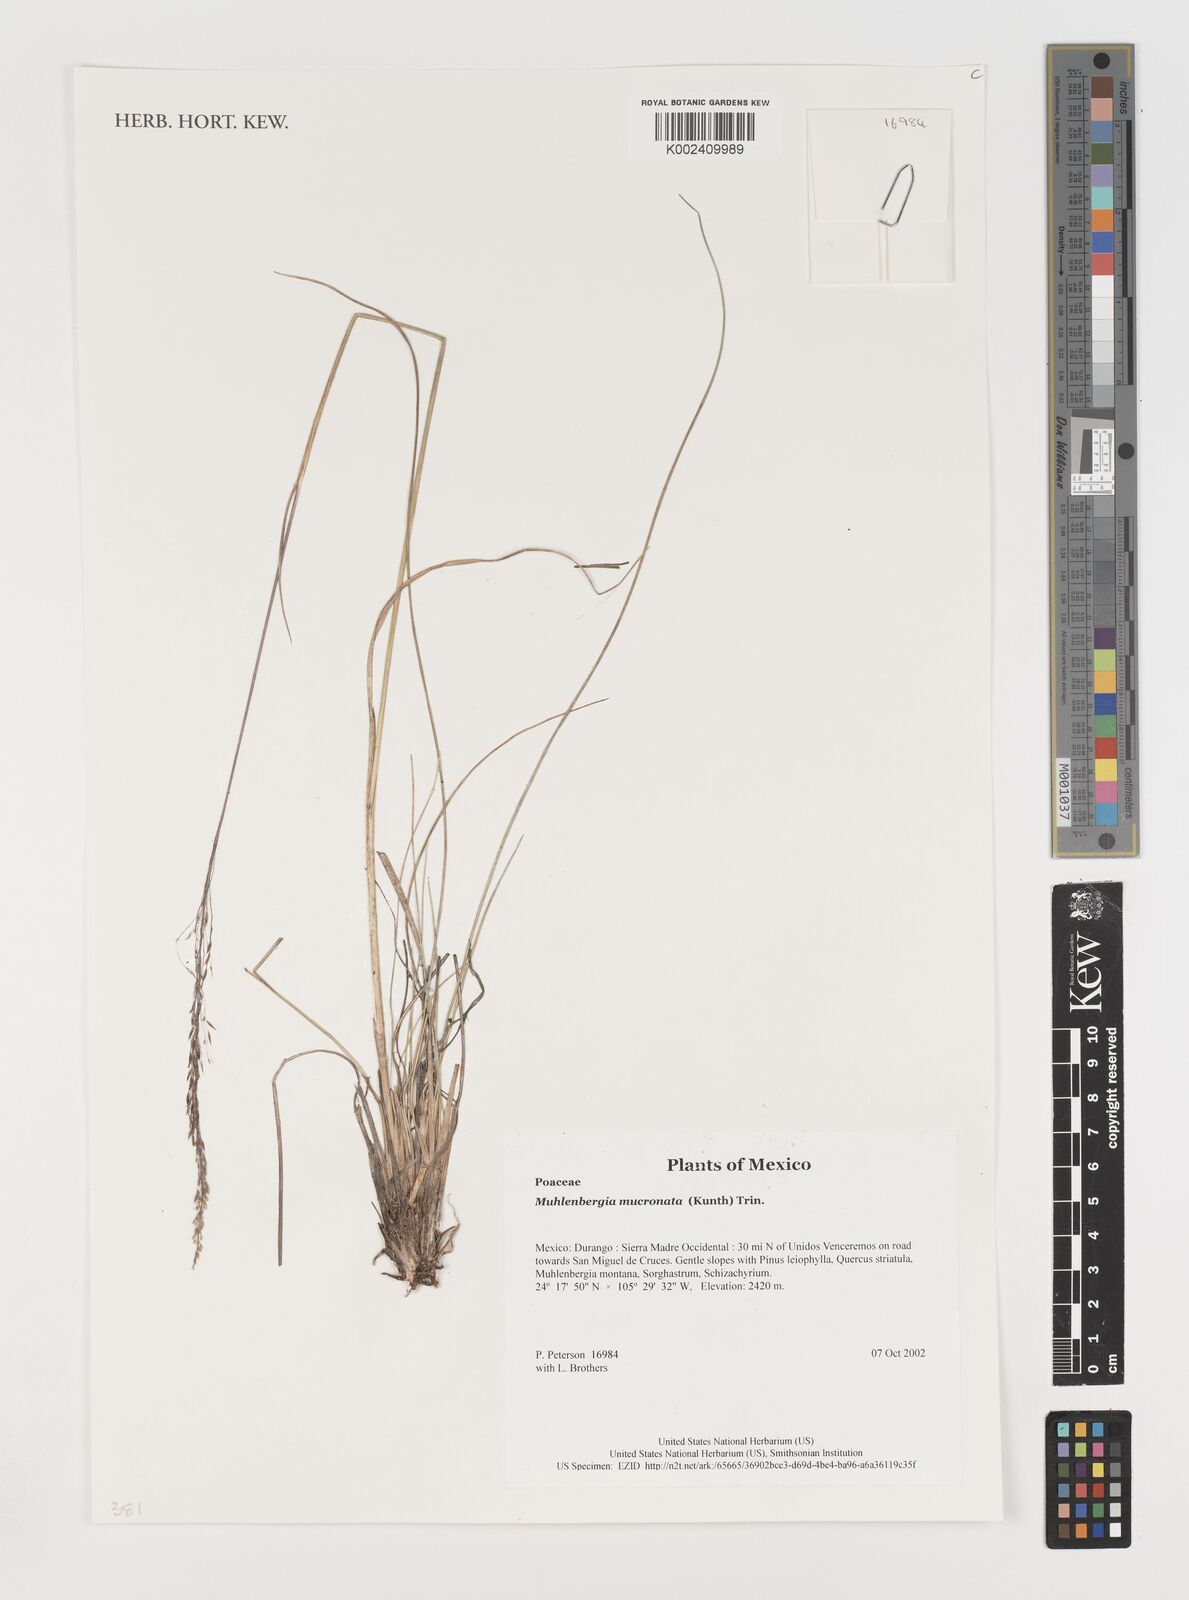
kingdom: Plantae
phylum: Tracheophyta
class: Liliopsida
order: Poales
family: Poaceae
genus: Muhlenbergia
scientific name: Muhlenbergia mucronata
